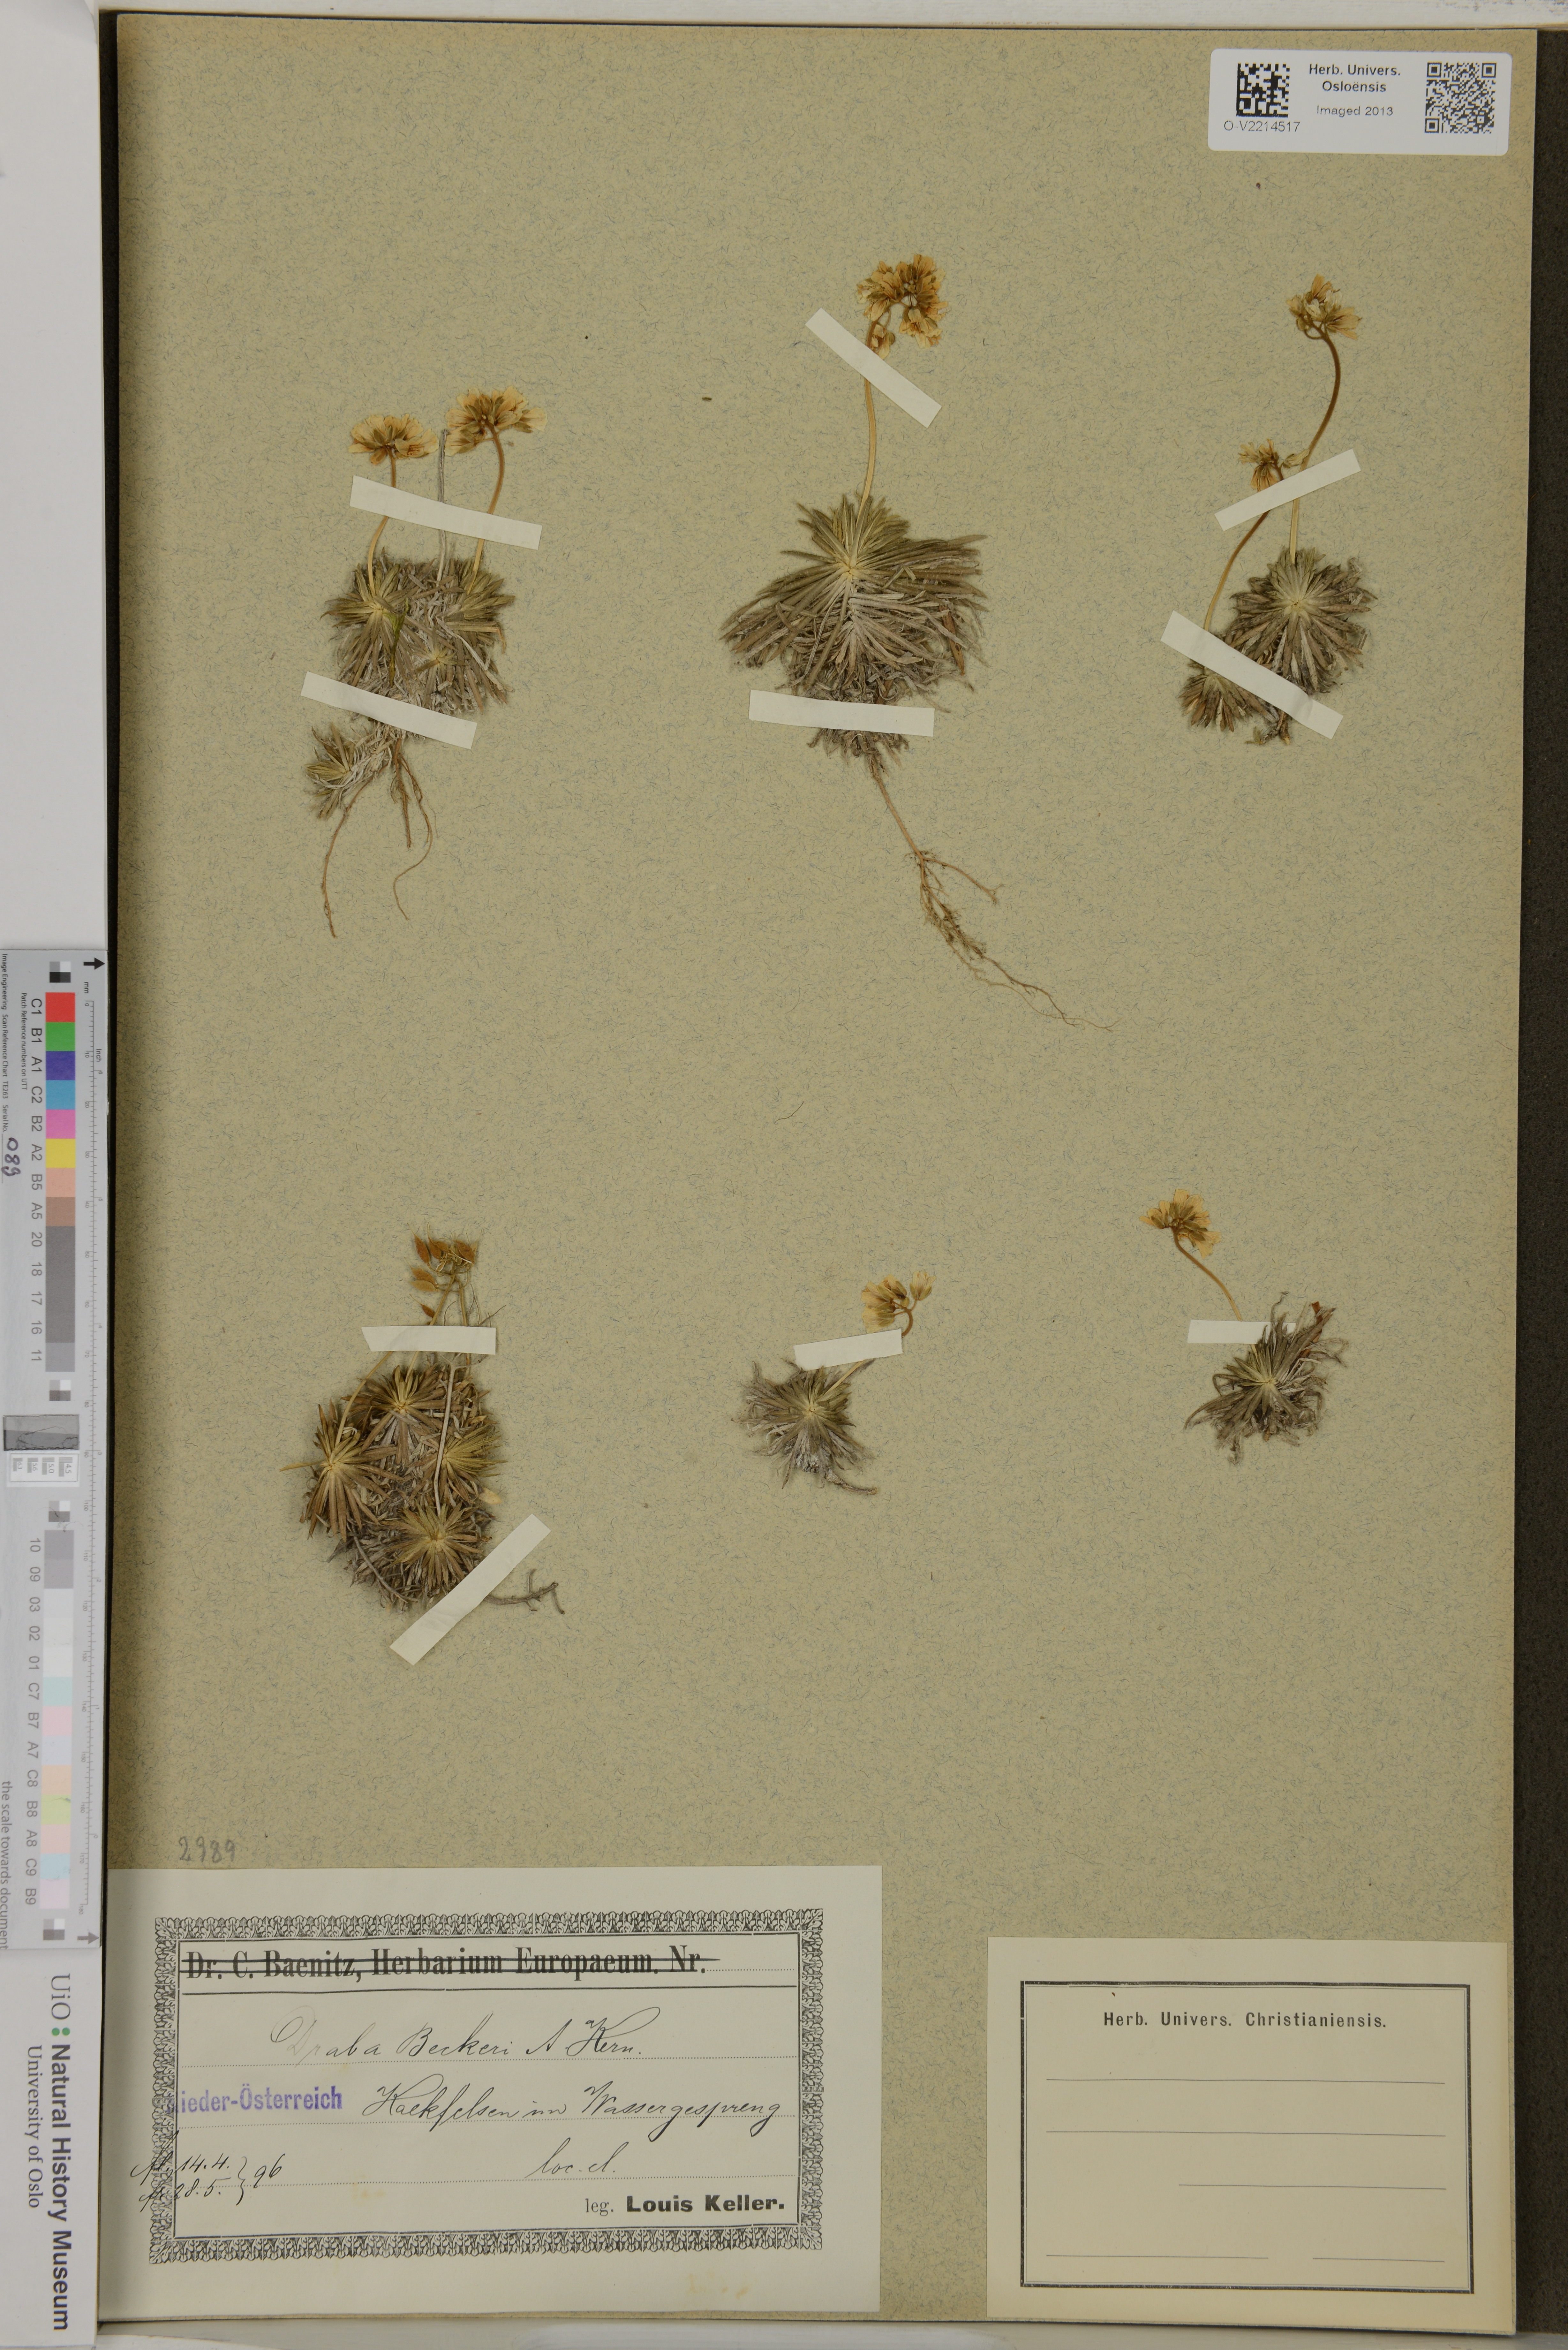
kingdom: Plantae
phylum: Tracheophyta
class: Magnoliopsida
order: Brassicales
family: Brassicaceae
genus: Draba
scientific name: Draba aizoides
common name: Yellow whitlowgrass
